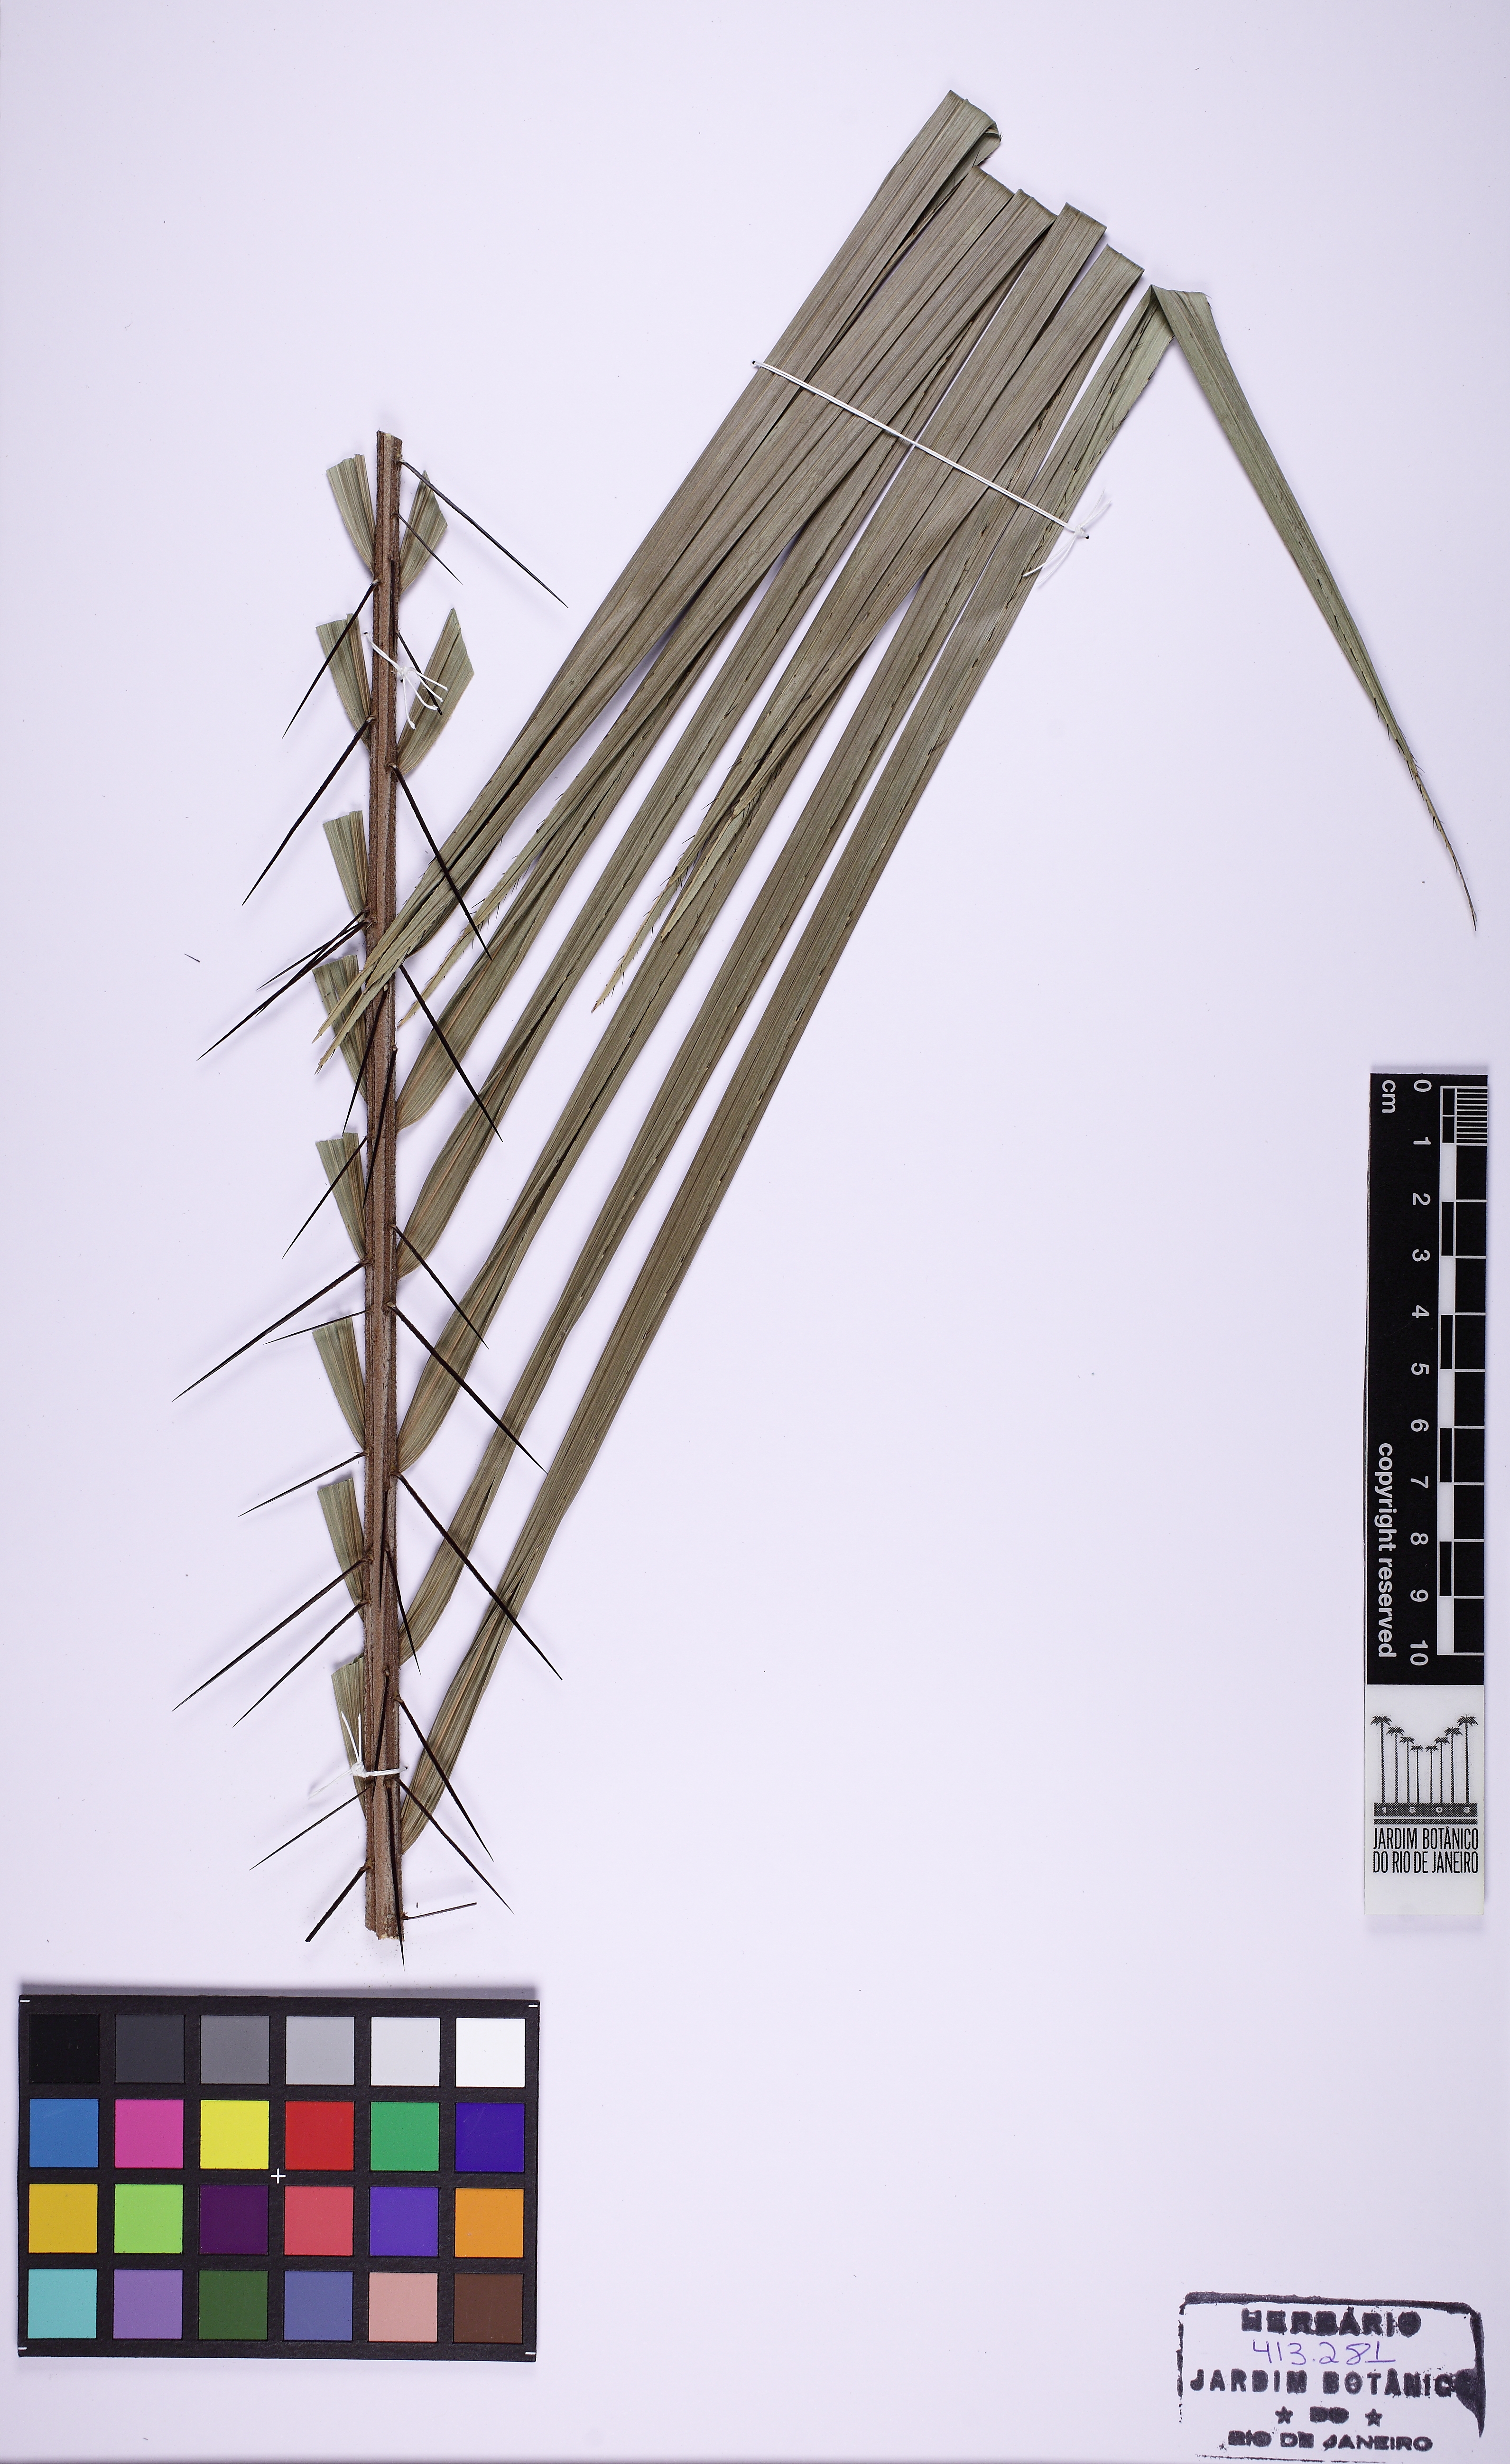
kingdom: Plantae
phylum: Tracheophyta
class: Liliopsida
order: Arecales
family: Arecaceae
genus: Bactris
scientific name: Bactris major
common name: Beach palm
